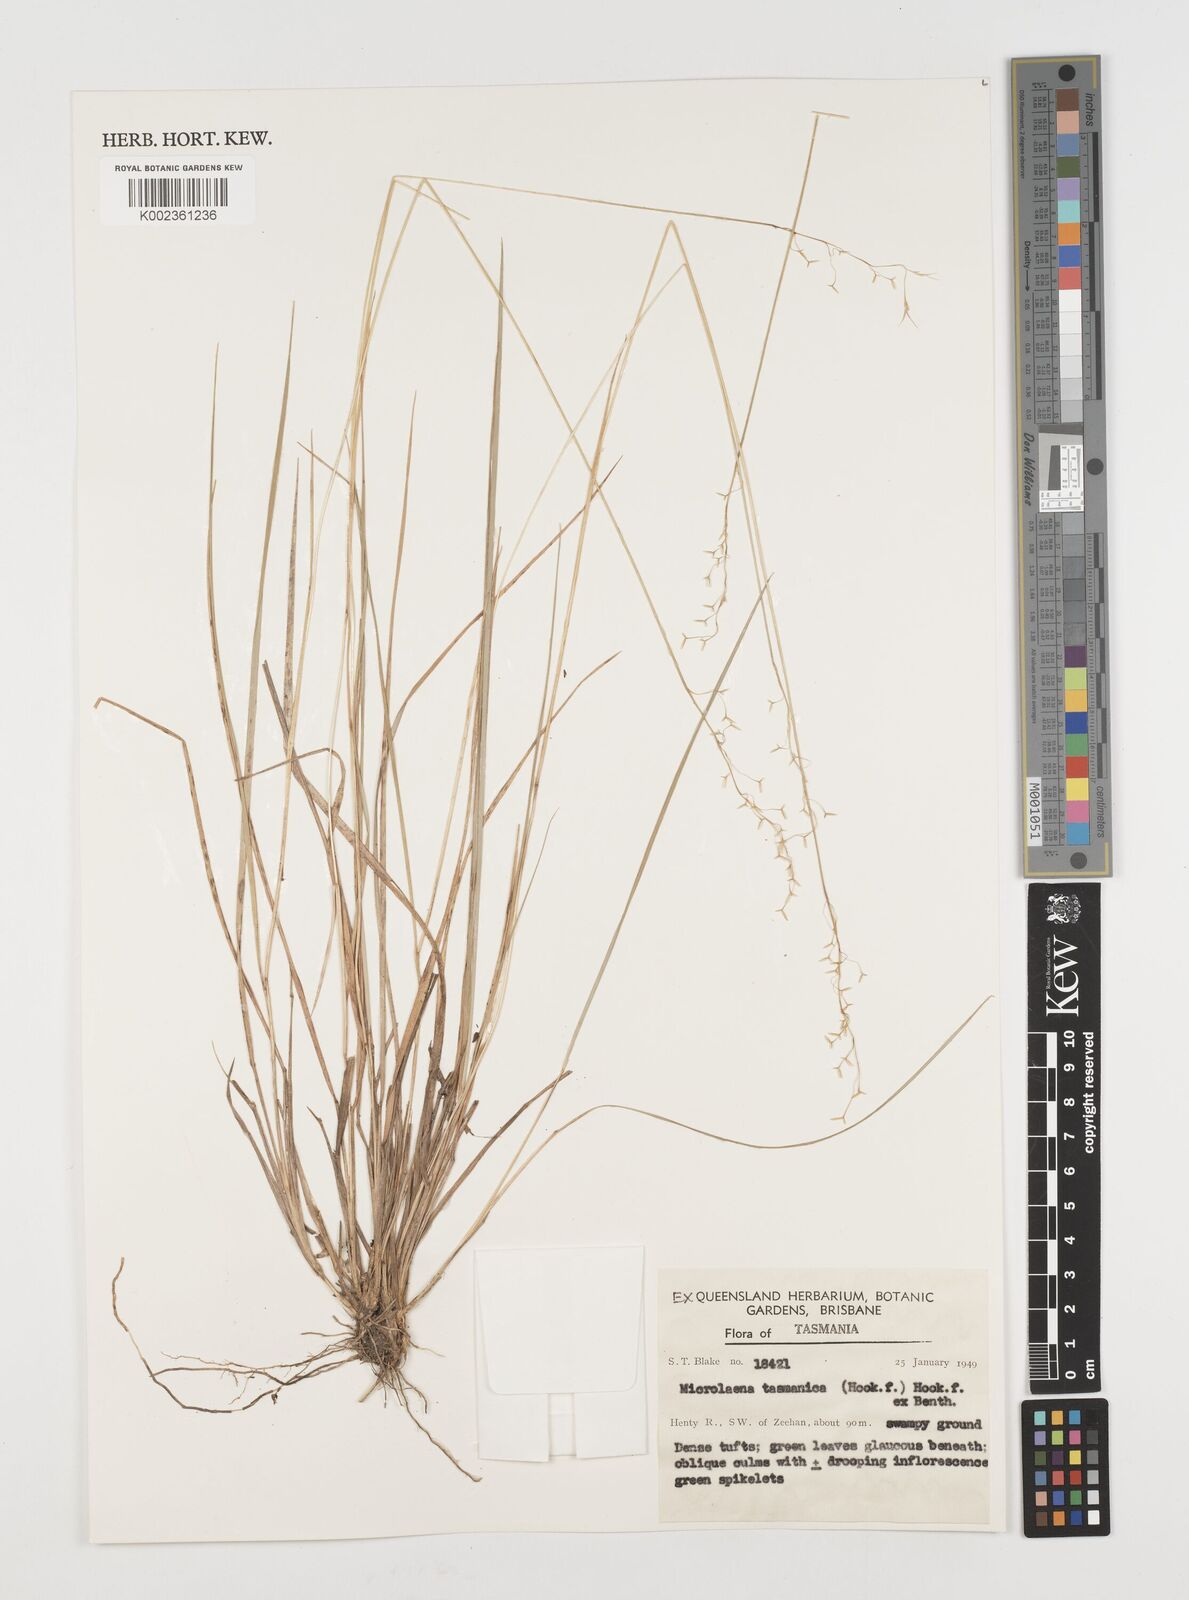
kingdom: Plantae
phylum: Tracheophyta
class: Liliopsida
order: Poales
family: Poaceae
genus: Microlaena
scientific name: Microlaena tasmanica
